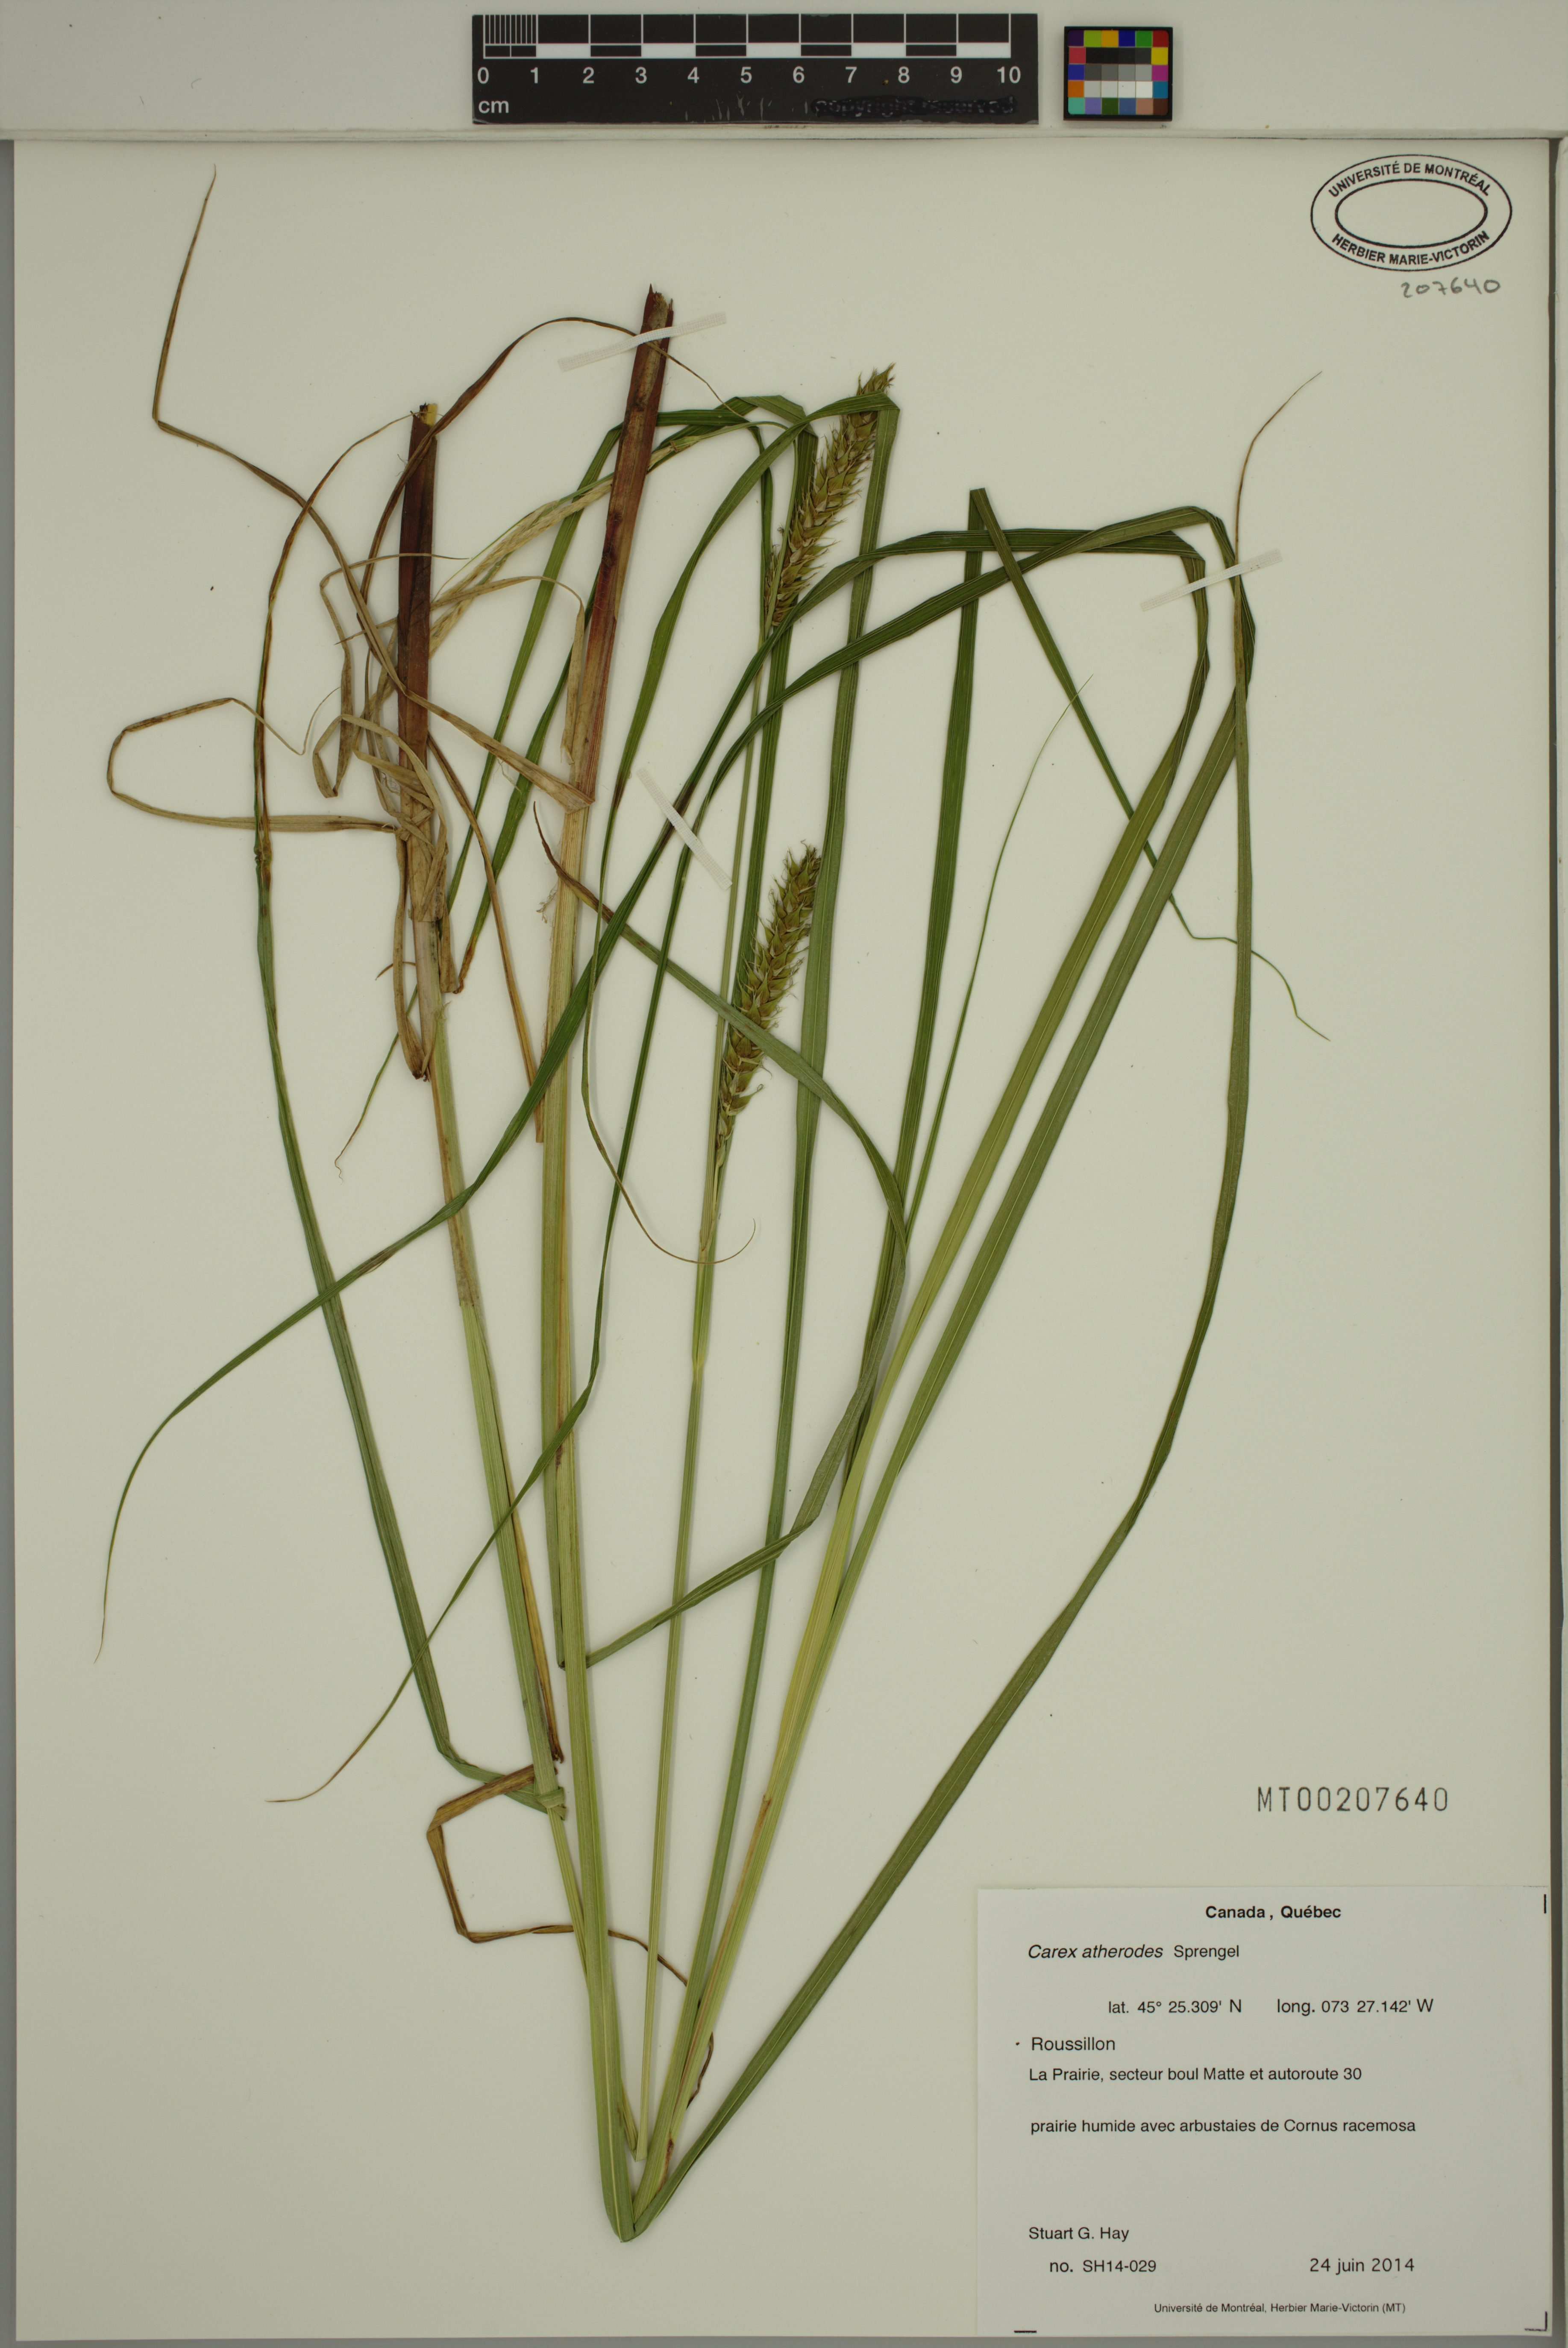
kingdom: Plantae
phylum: Tracheophyta
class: Liliopsida
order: Poales
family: Cyperaceae
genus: Carex
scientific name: Carex atherodes
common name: Wheat sedge
